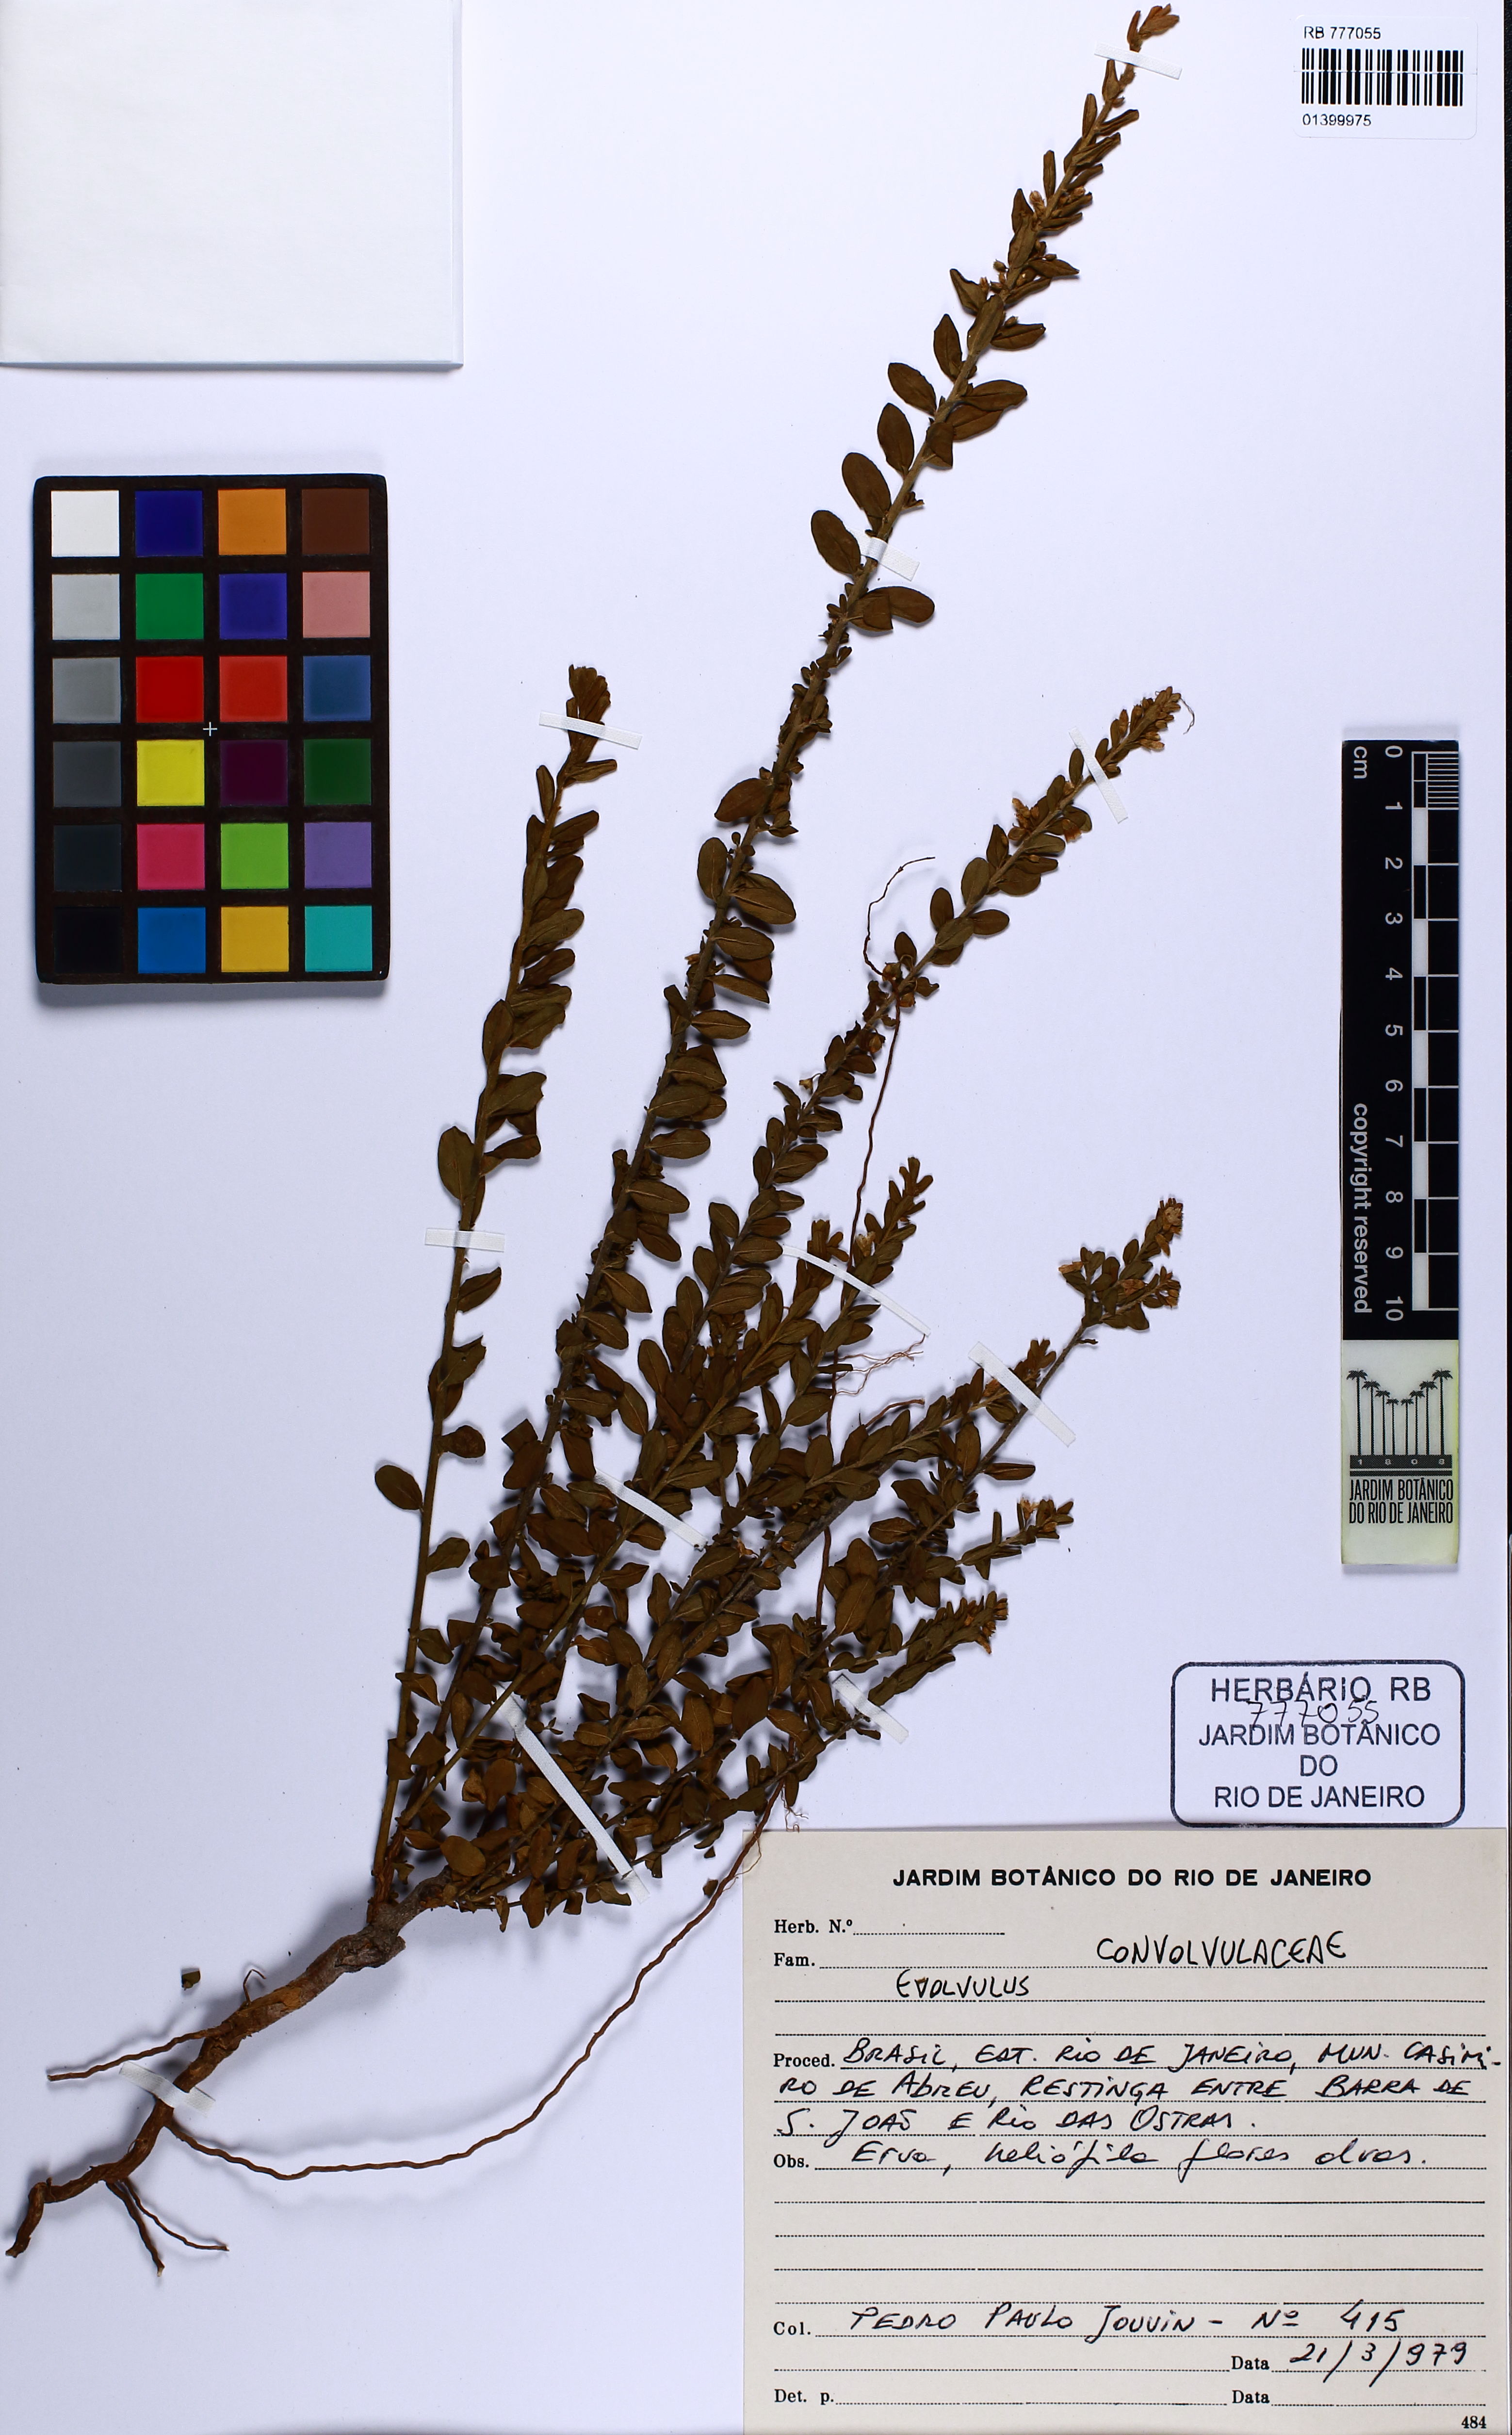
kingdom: Plantae
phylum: Tracheophyta
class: Magnoliopsida
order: Solanales
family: Convolvulaceae
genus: Evolvulus
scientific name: Evolvulus
